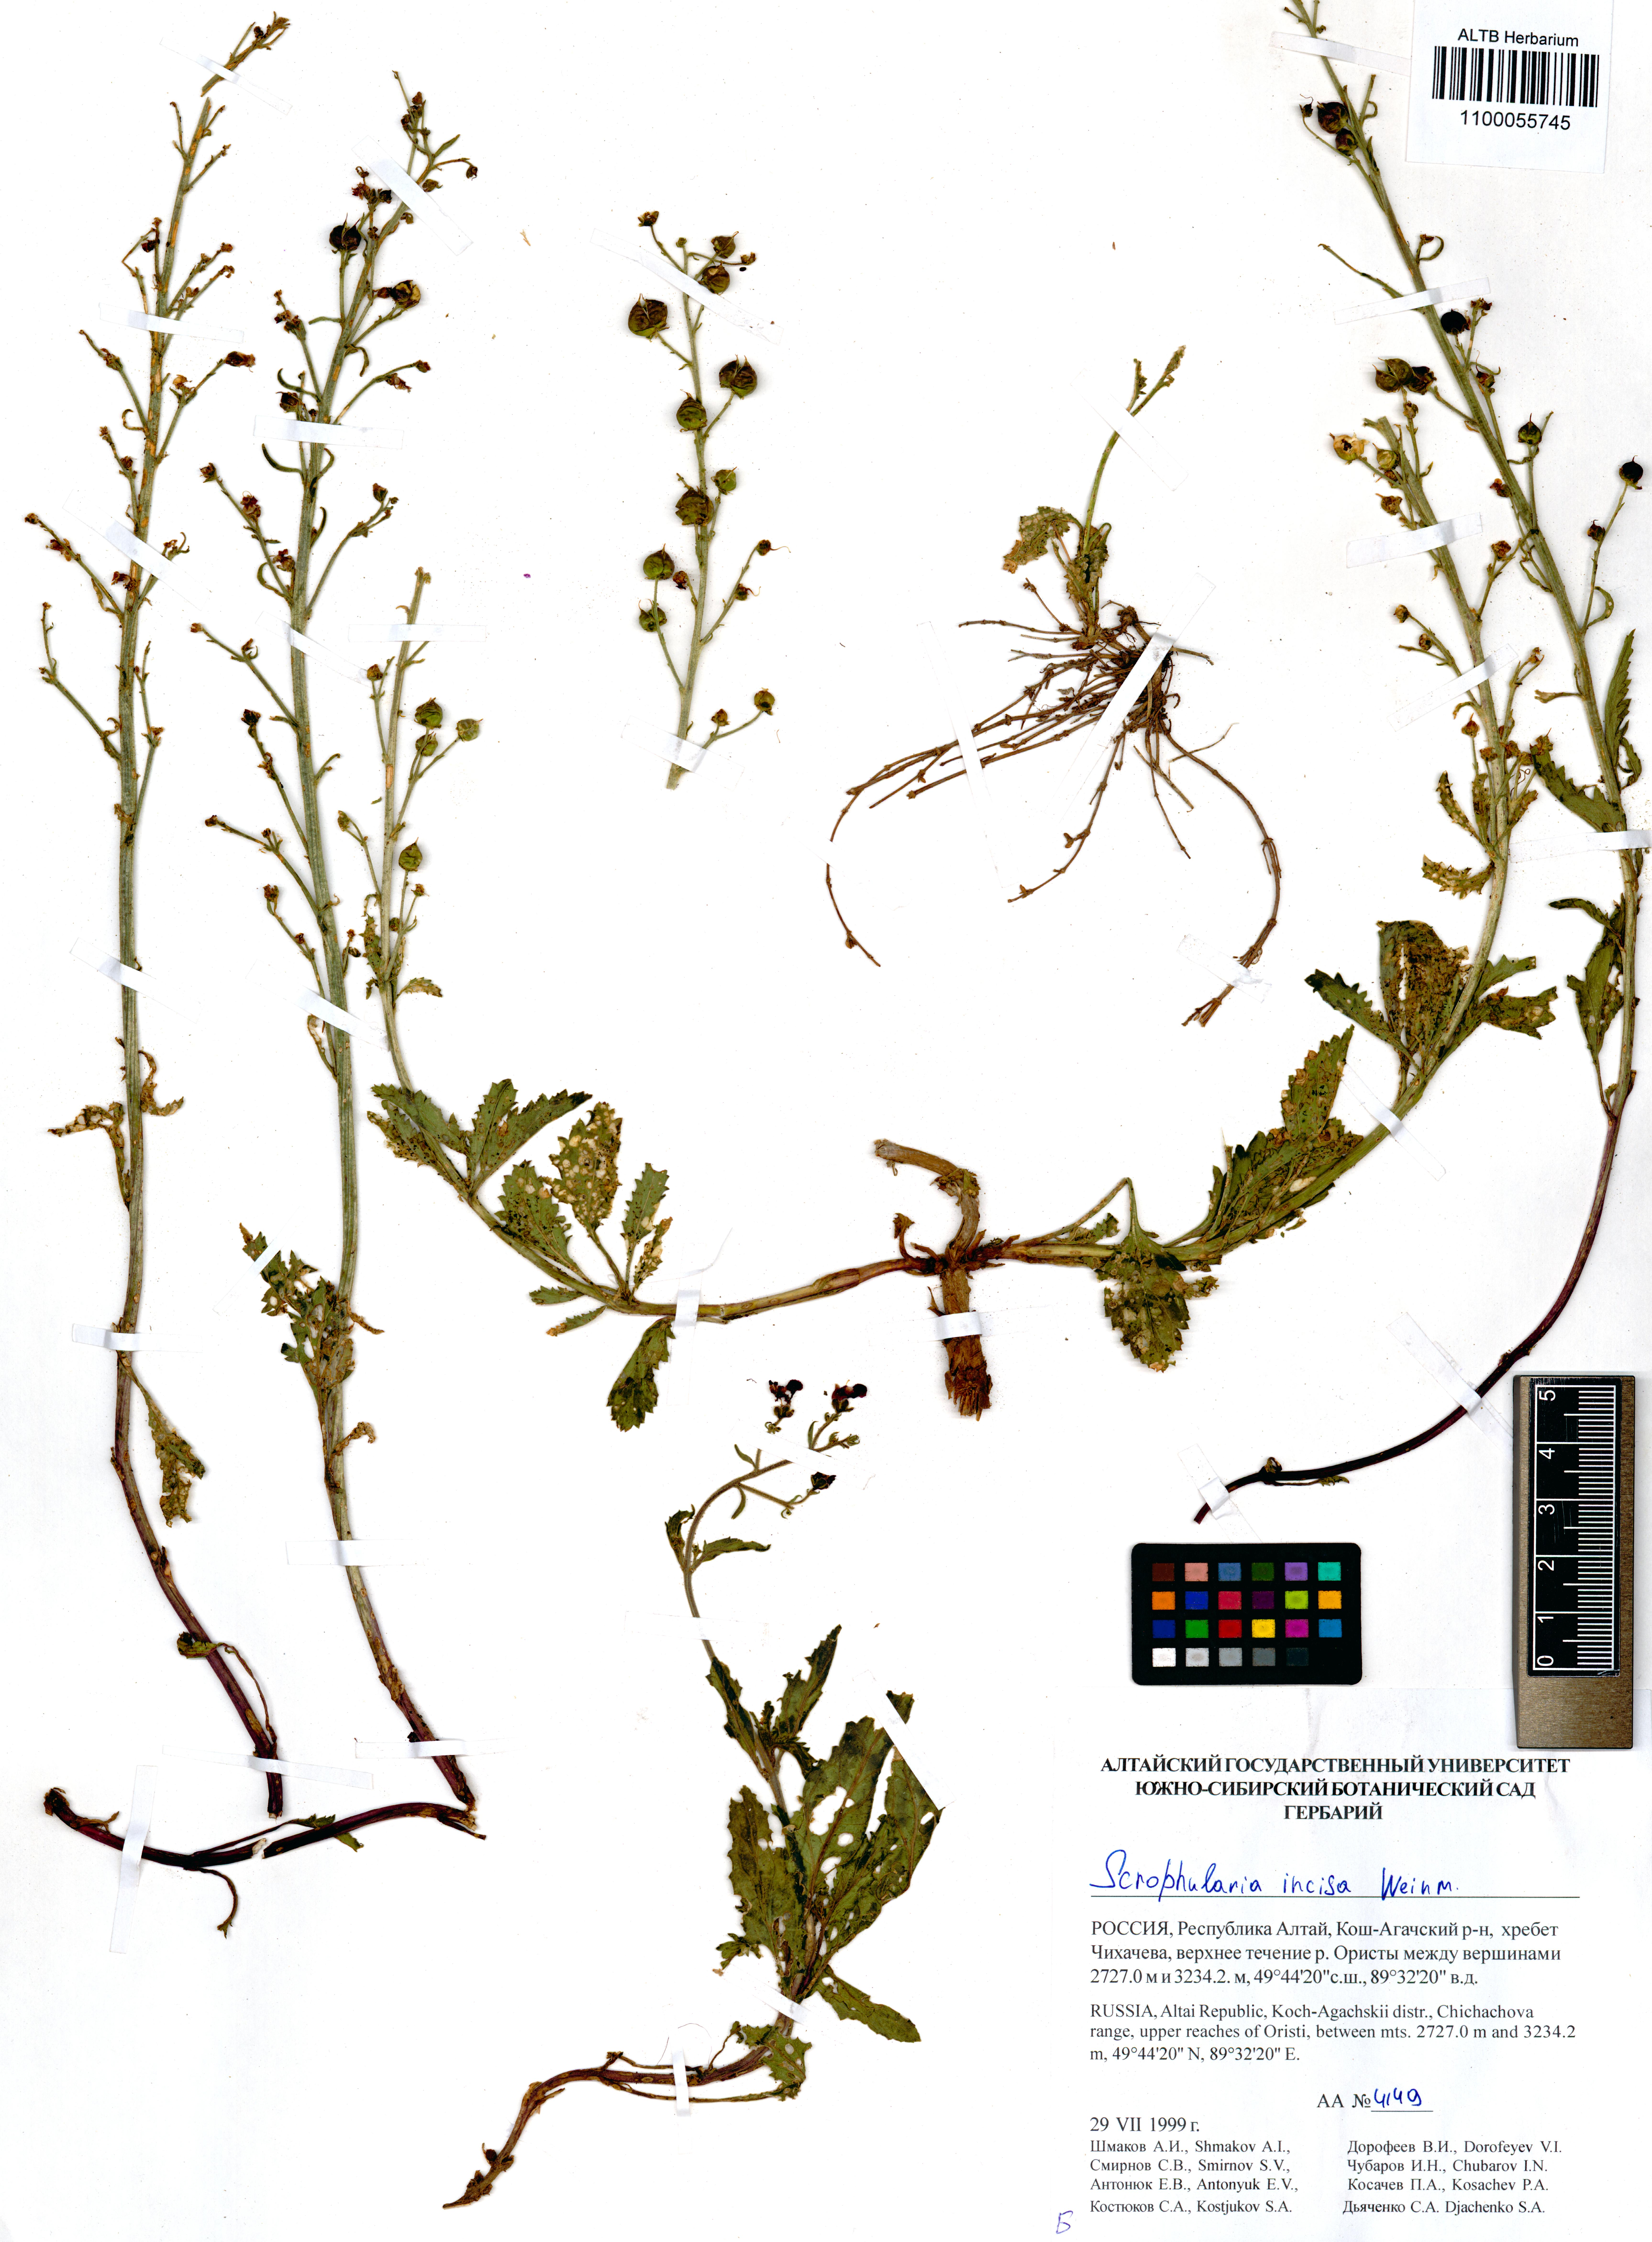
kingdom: Plantae
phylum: Tracheophyta
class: Magnoliopsida
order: Lamiales
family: Scrophulariaceae
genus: Scrophularia
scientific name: Scrophularia incisa
